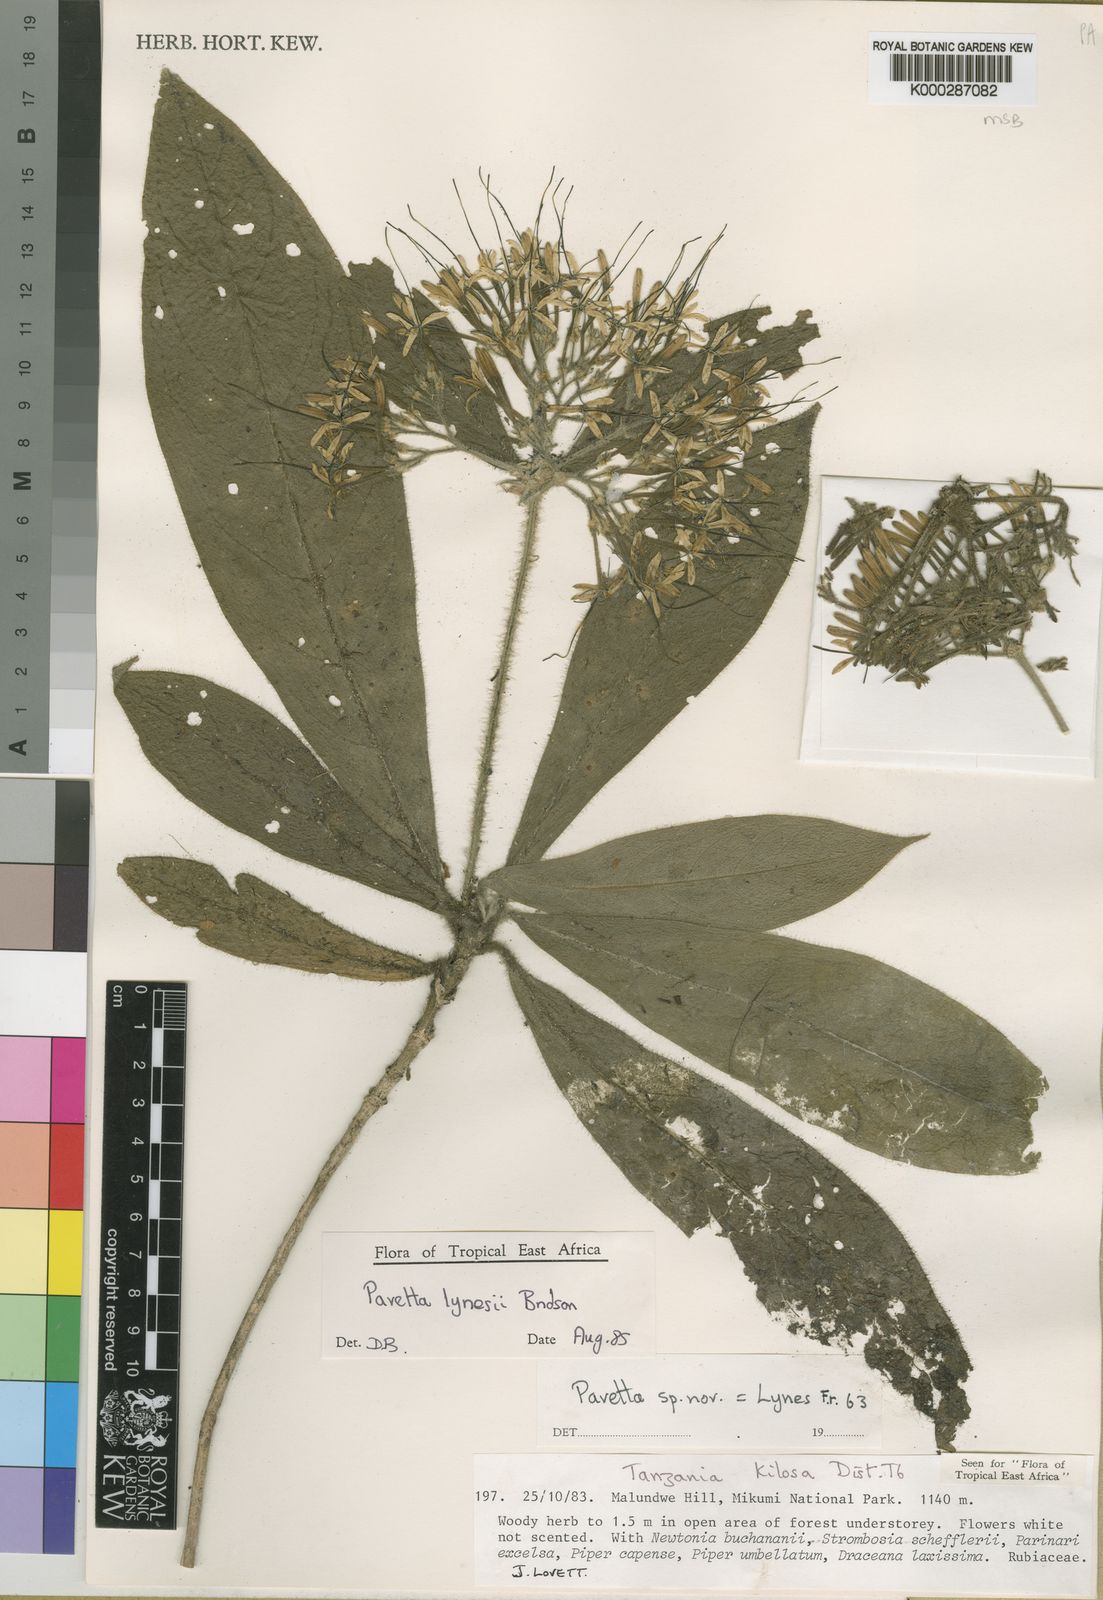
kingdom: Plantae
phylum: Tracheophyta
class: Magnoliopsida
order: Gentianales
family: Rubiaceae
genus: Pavetta
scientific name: Pavetta lynesii
